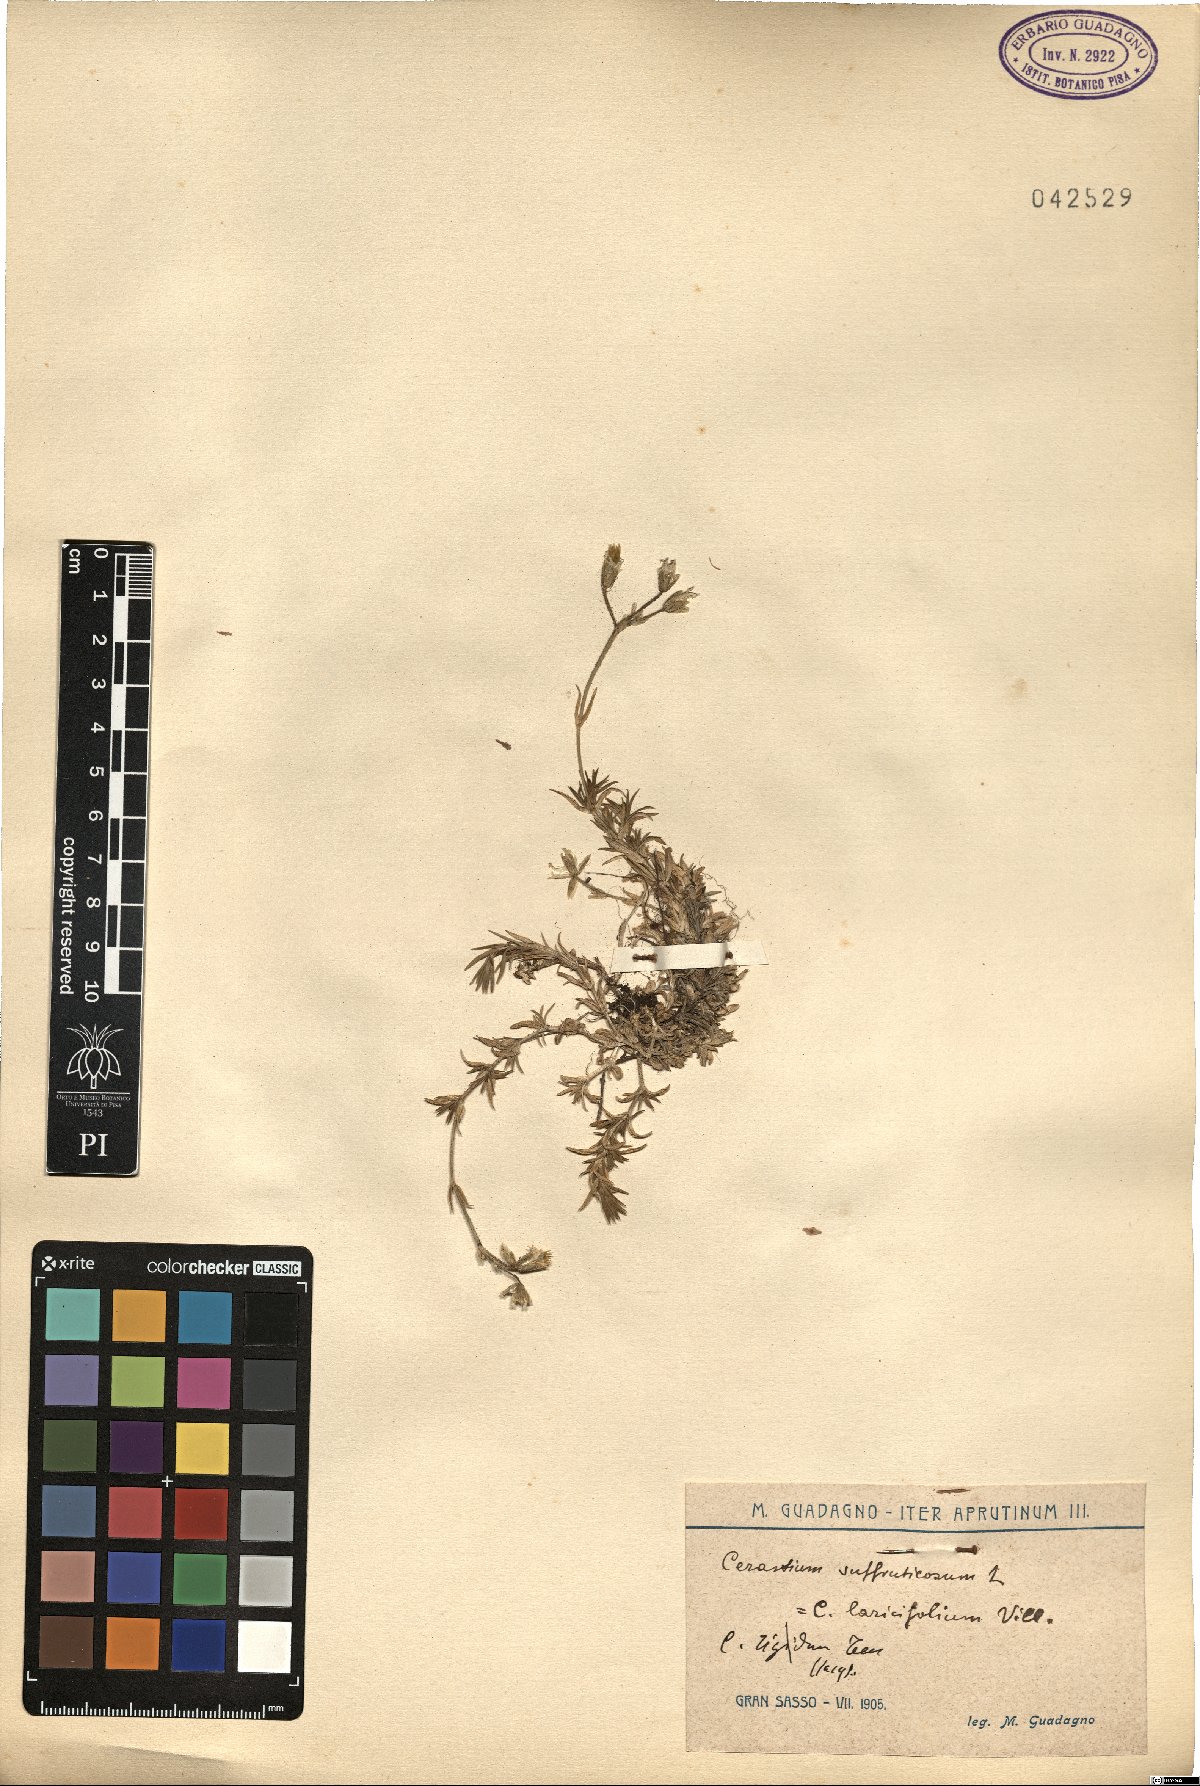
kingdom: Plantae
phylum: Tracheophyta
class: Magnoliopsida
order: Caryophyllales
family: Caryophyllaceae
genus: Cerastium
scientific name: Cerastium arvense
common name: Field mouse-ear
